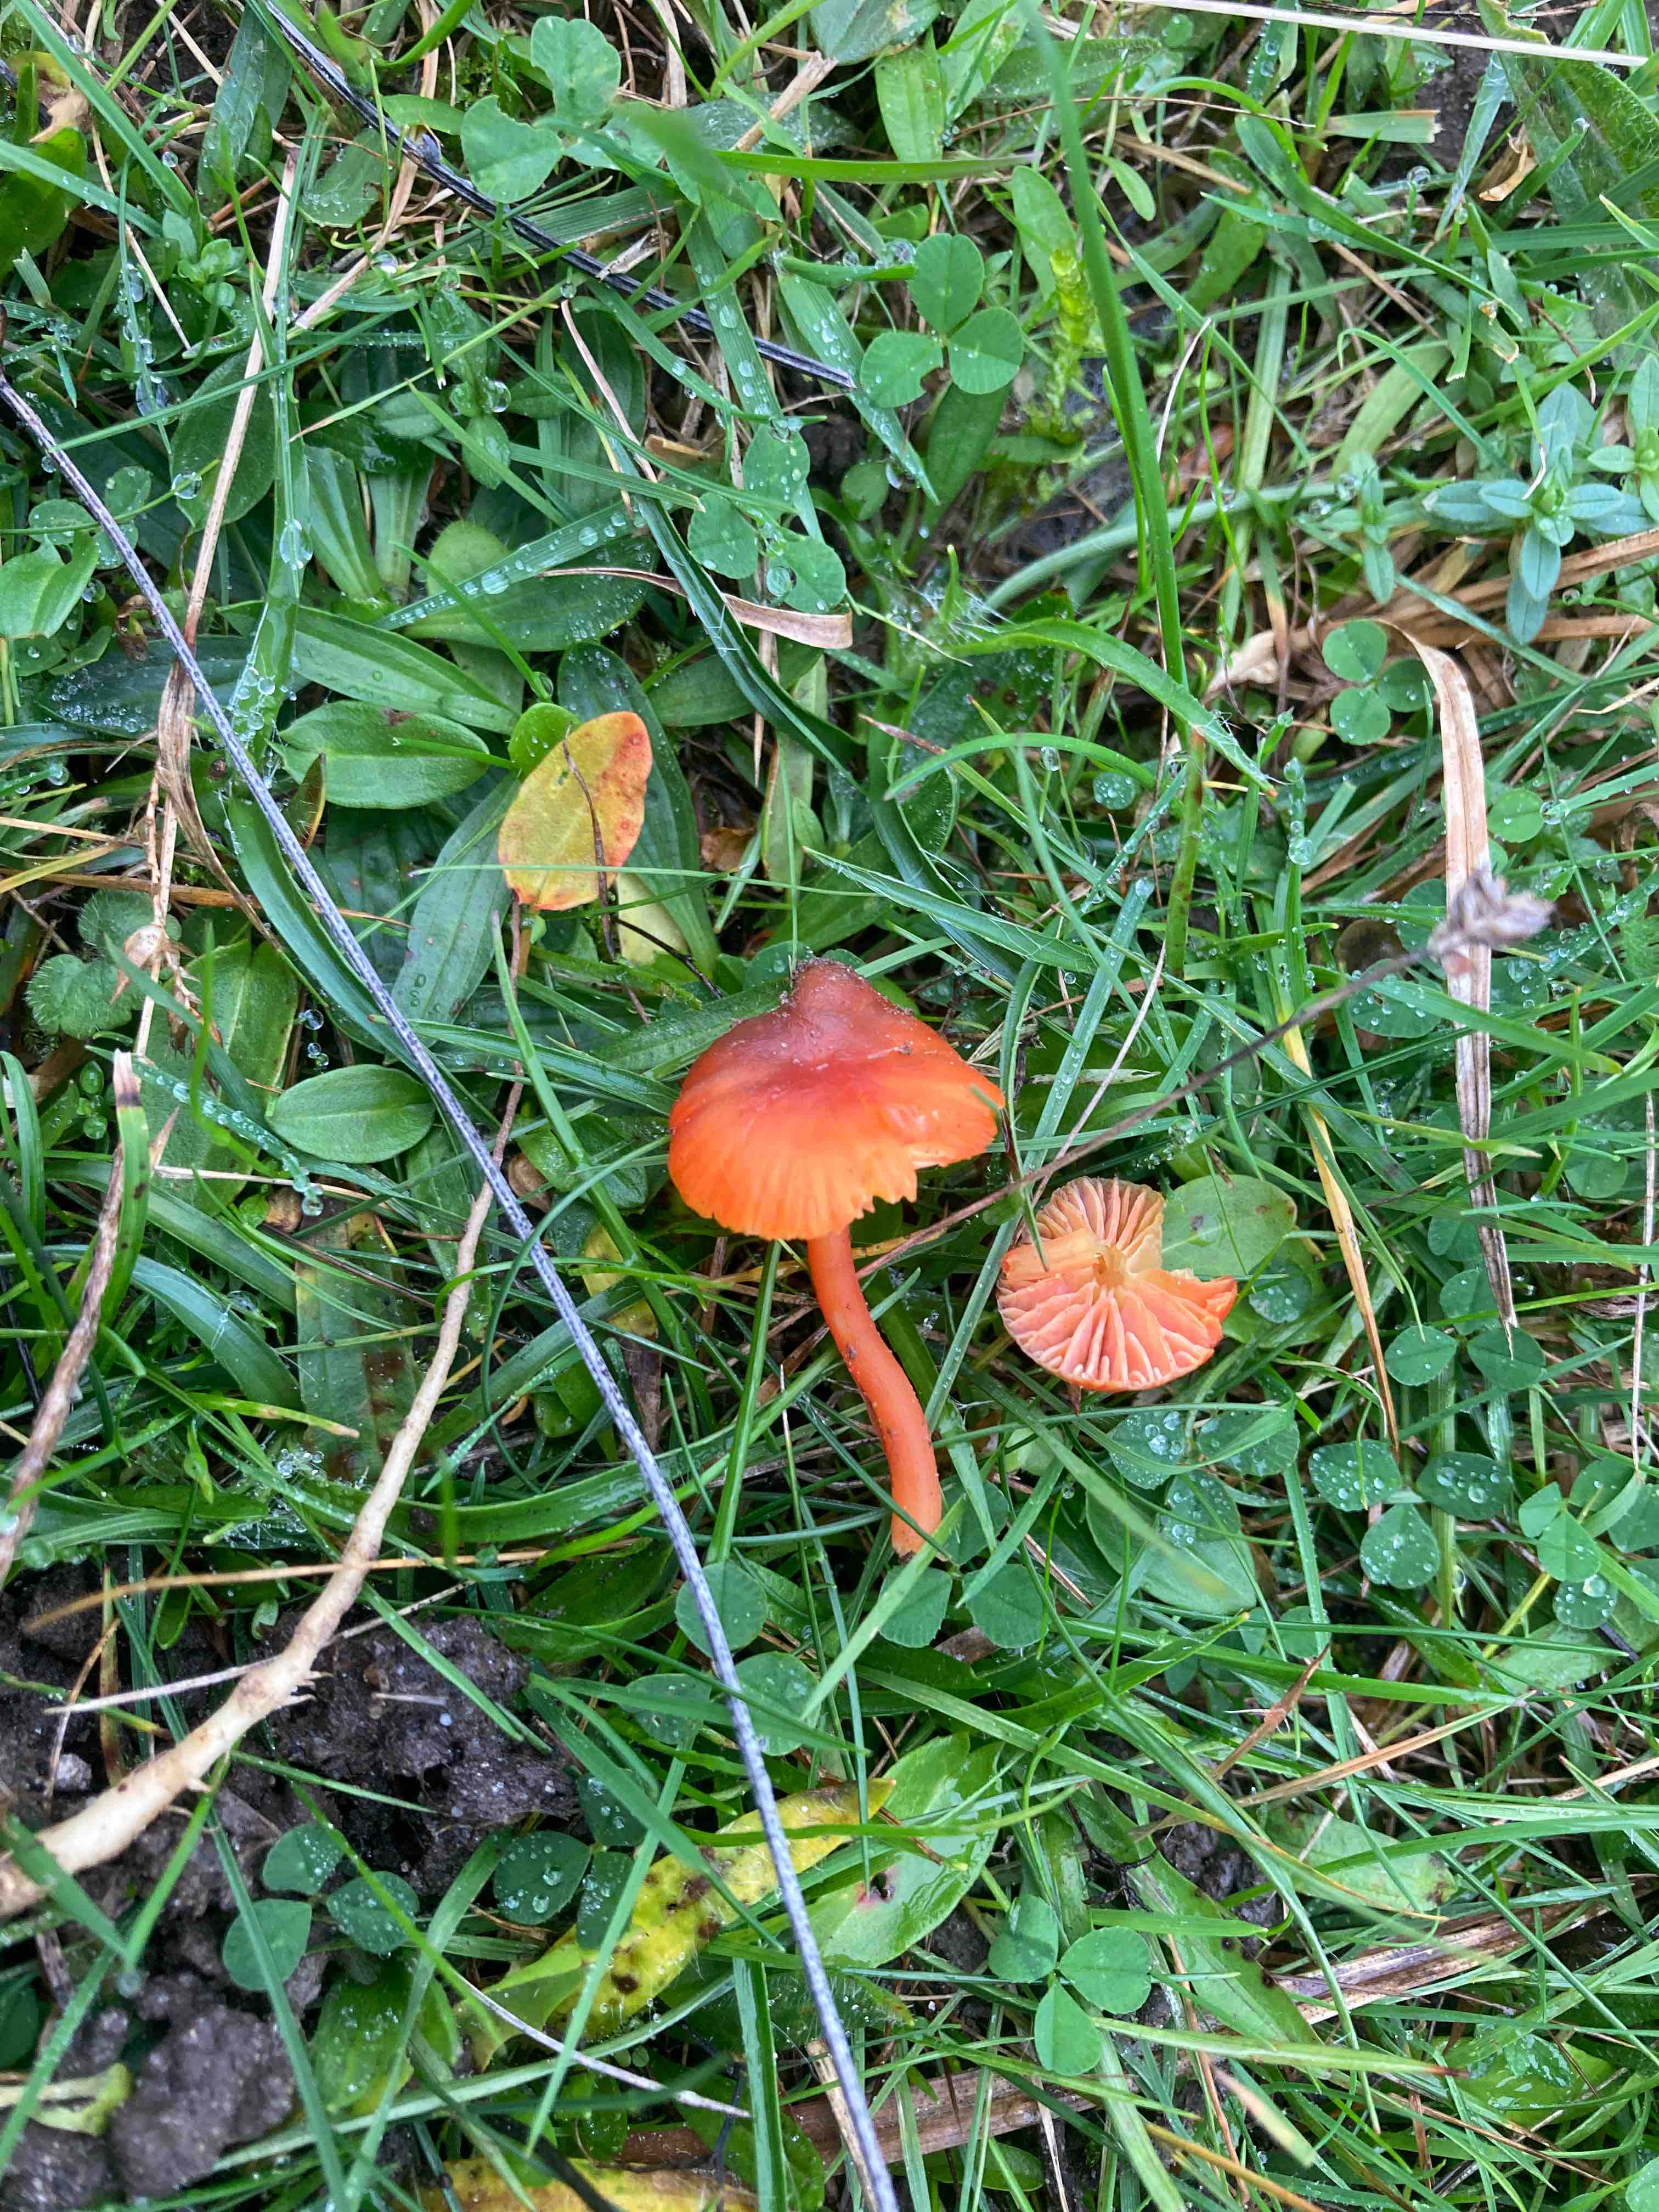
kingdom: Fungi
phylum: Basidiomycota
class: Agaricomycetes
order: Agaricales
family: Hygrophoraceae
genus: Hygrocybe
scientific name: Hygrocybe phaeococcinea
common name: sortdugget vokshat
